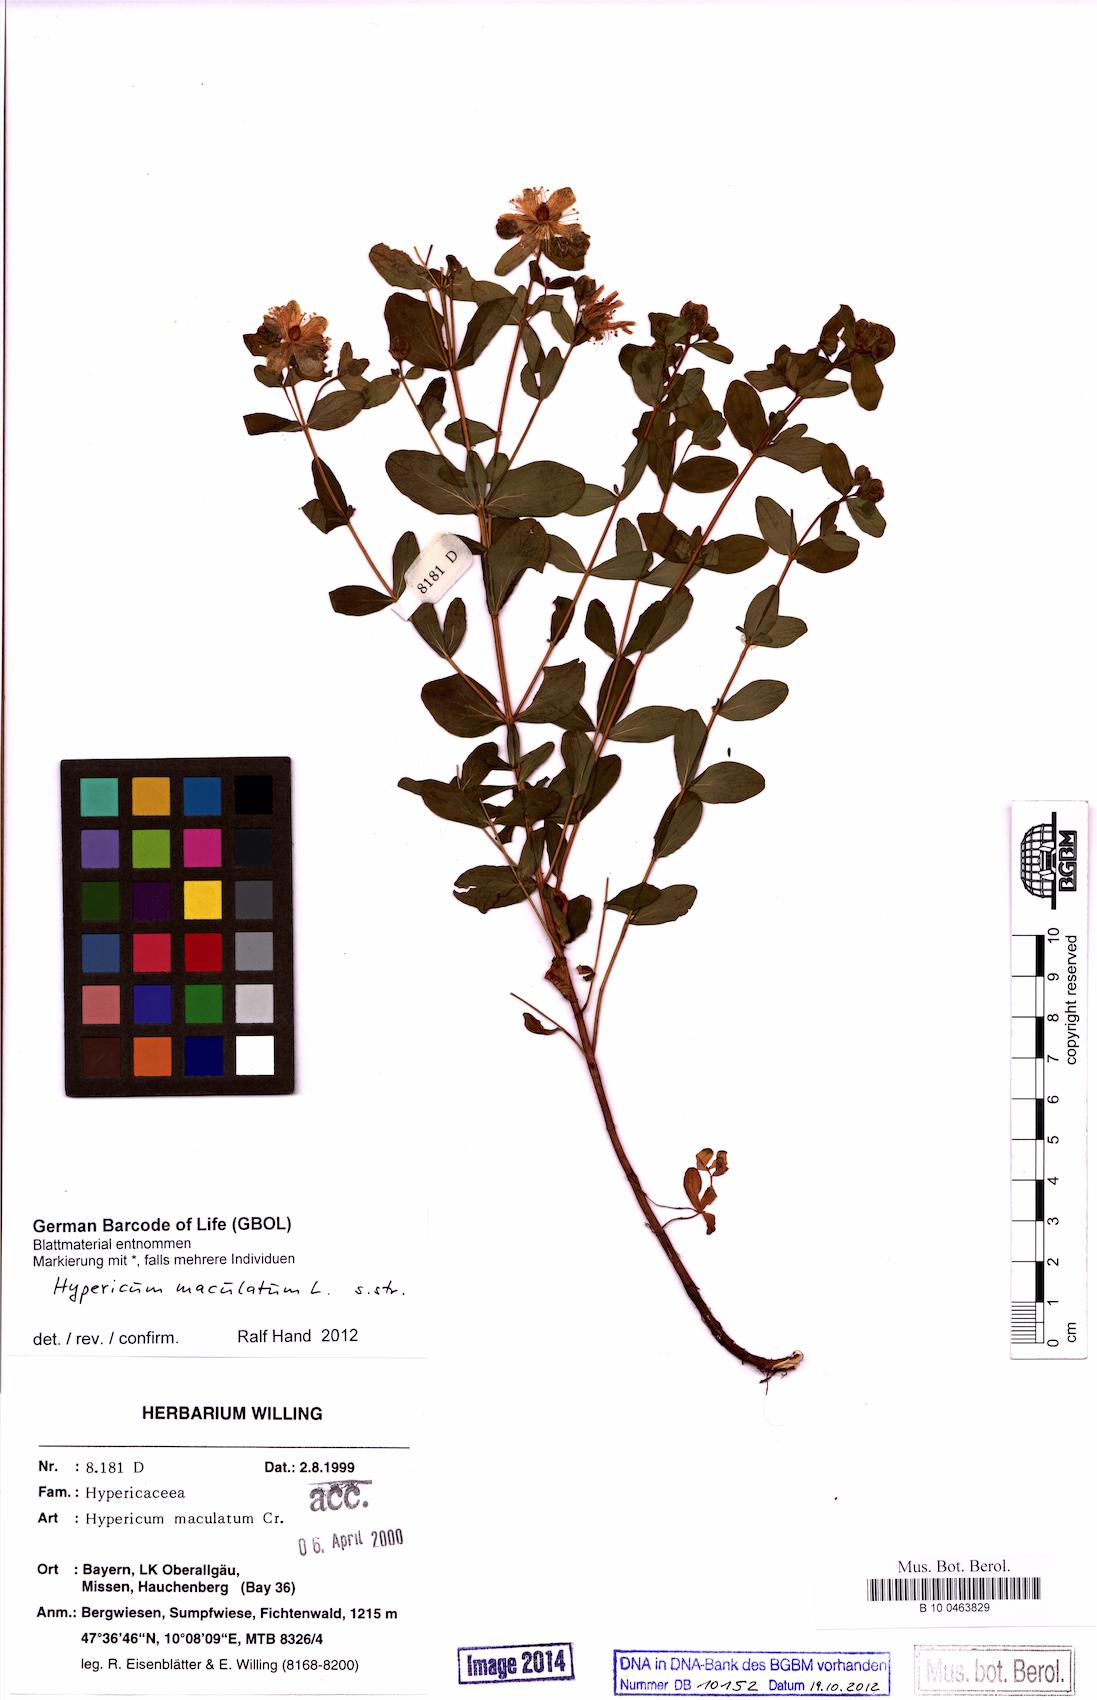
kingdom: Plantae
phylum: Tracheophyta
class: Magnoliopsida
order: Malpighiales
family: Hypericaceae
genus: Hypericum
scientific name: Hypericum
